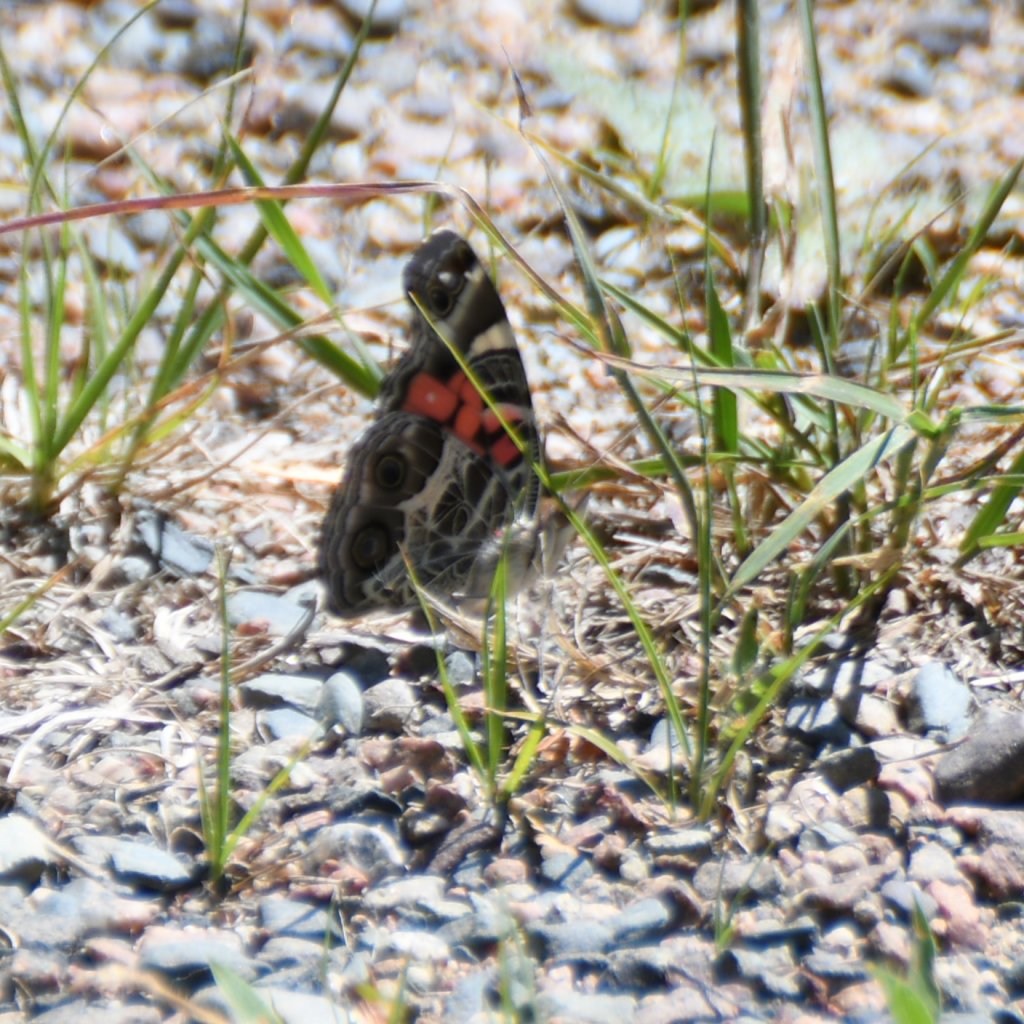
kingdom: Animalia
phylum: Arthropoda
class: Insecta
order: Lepidoptera
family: Nymphalidae
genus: Vanessa
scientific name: Vanessa virginiensis
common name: American Lady
